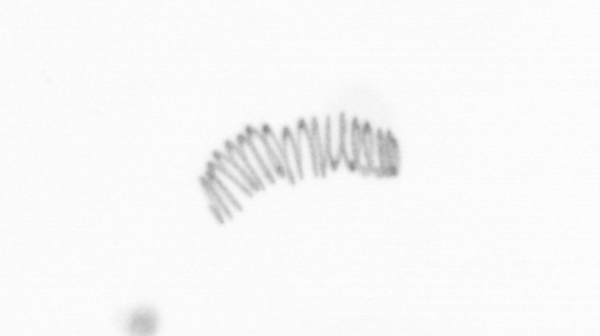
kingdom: Chromista
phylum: Ochrophyta
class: Bacillariophyceae
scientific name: Bacillariophyceae
